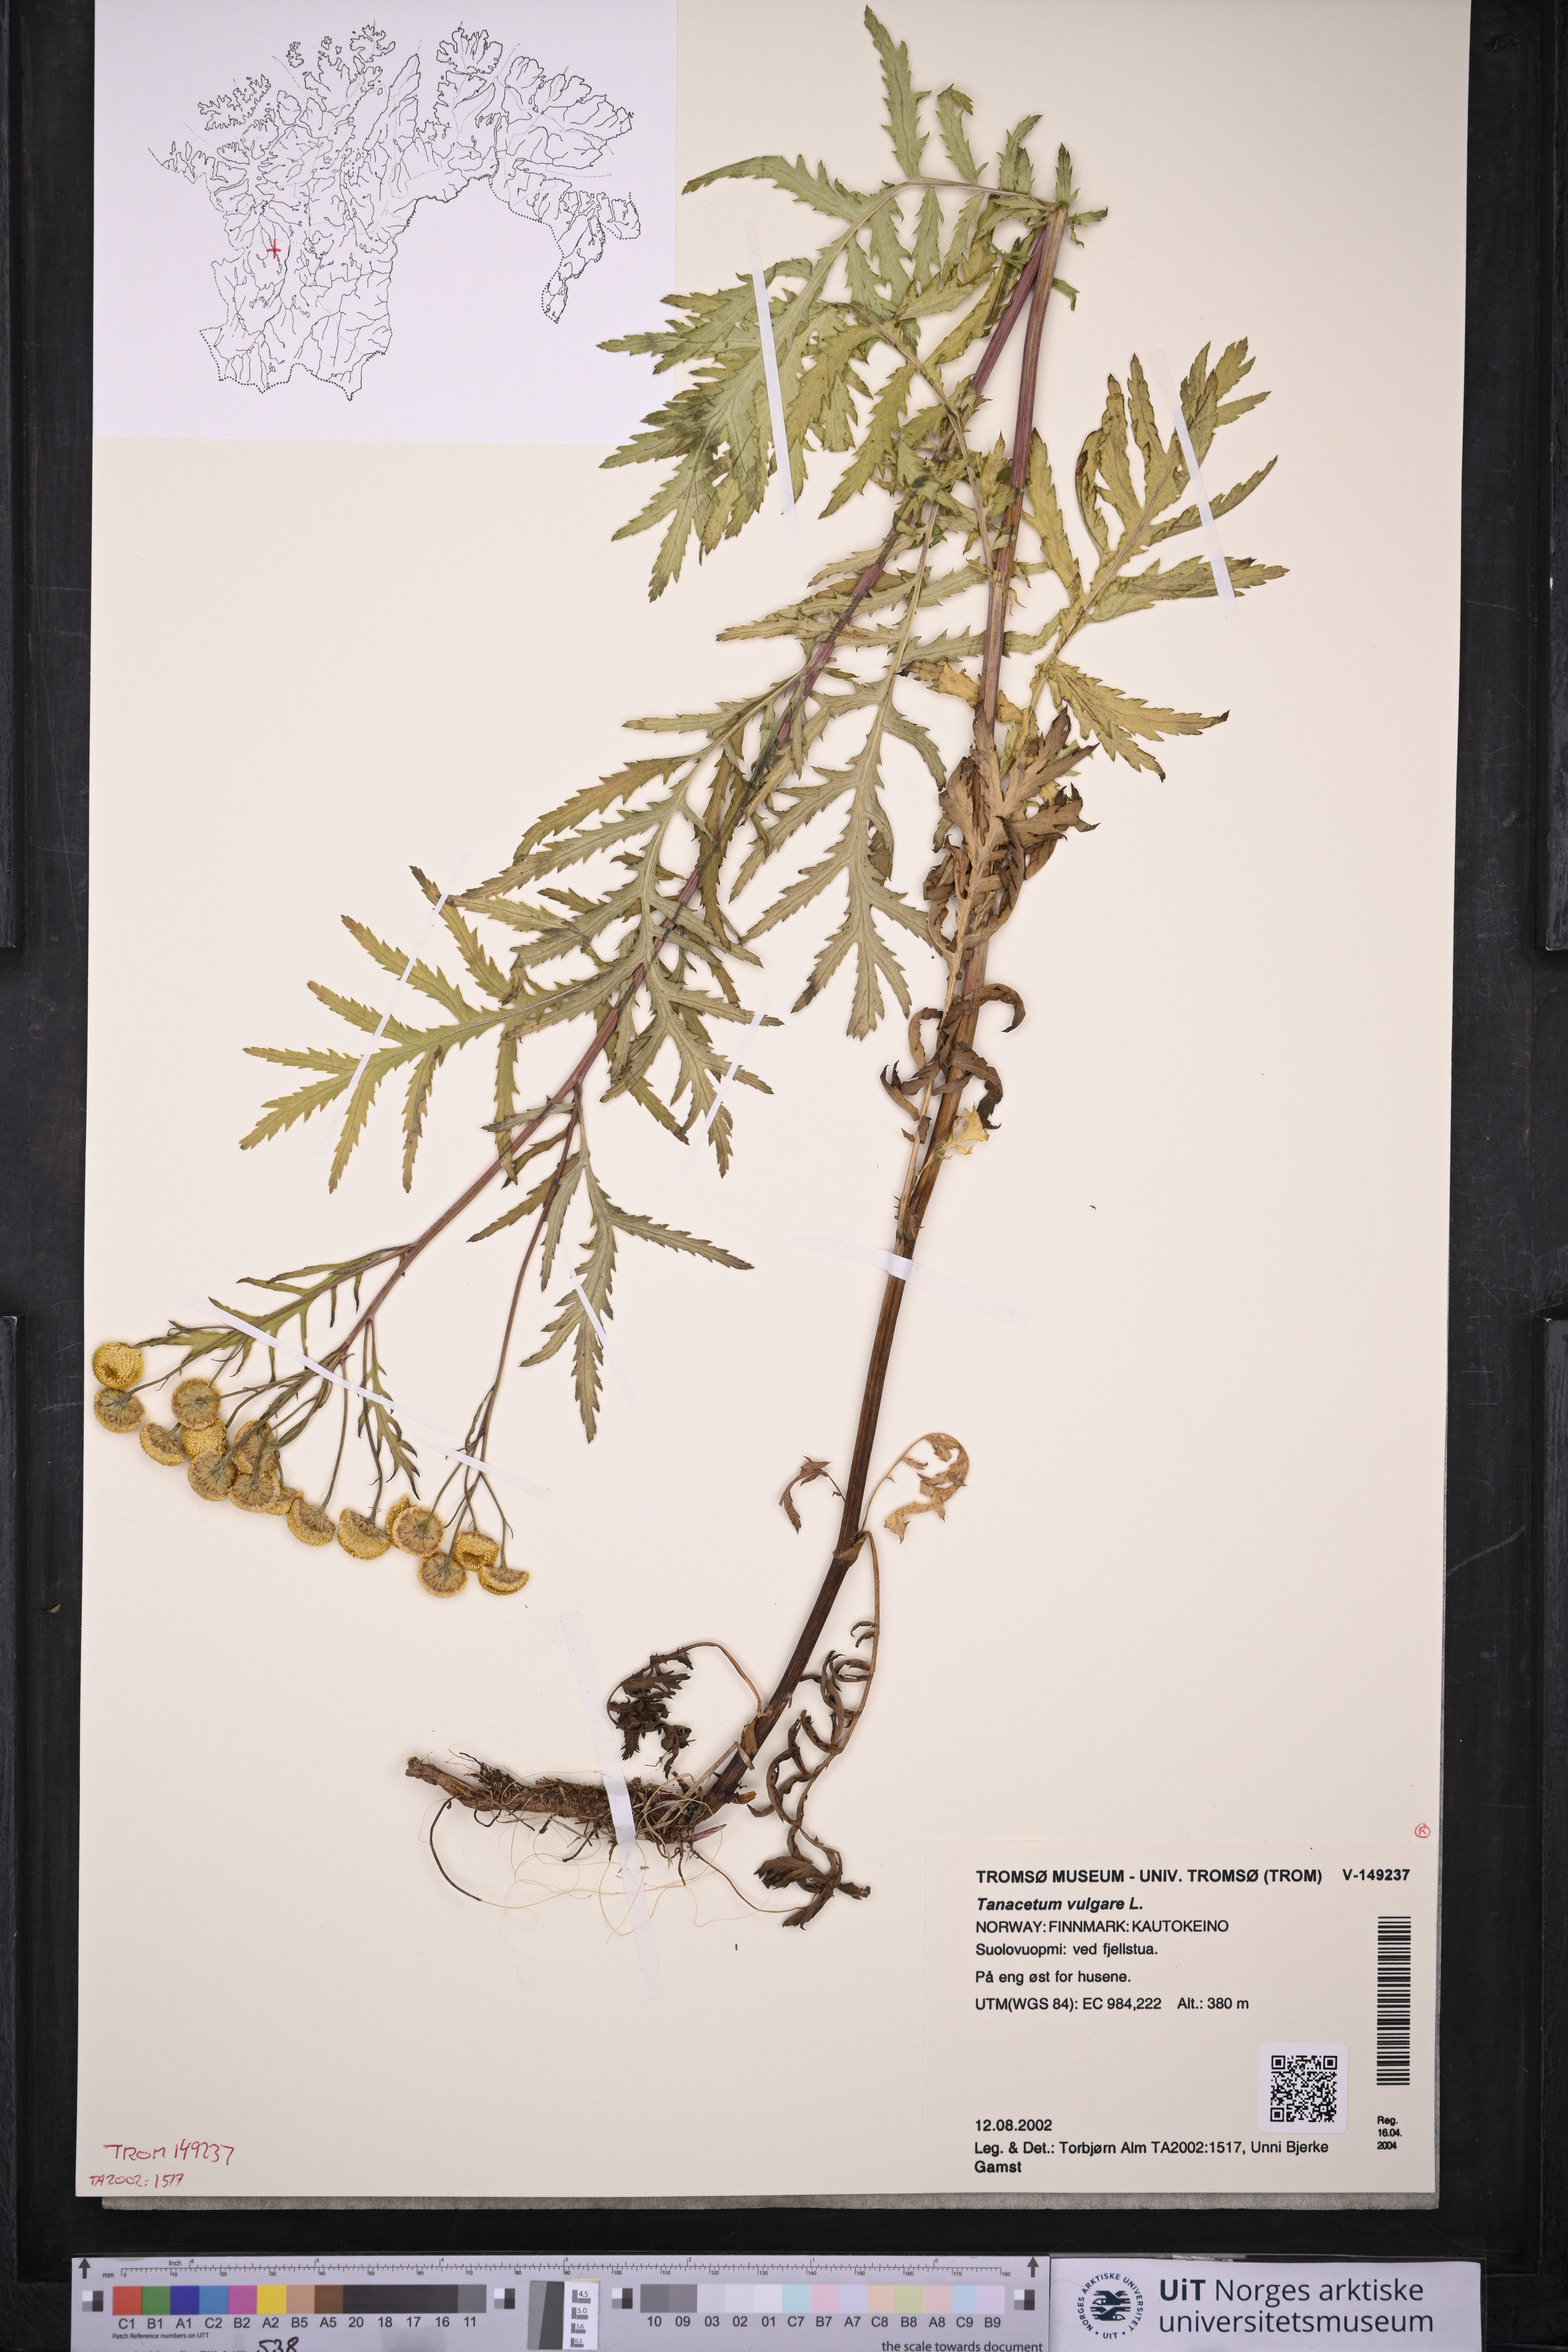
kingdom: Plantae
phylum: Tracheophyta
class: Magnoliopsida
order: Asterales
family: Asteraceae
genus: Tanacetum
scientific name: Tanacetum vulgare
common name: Common tansy
